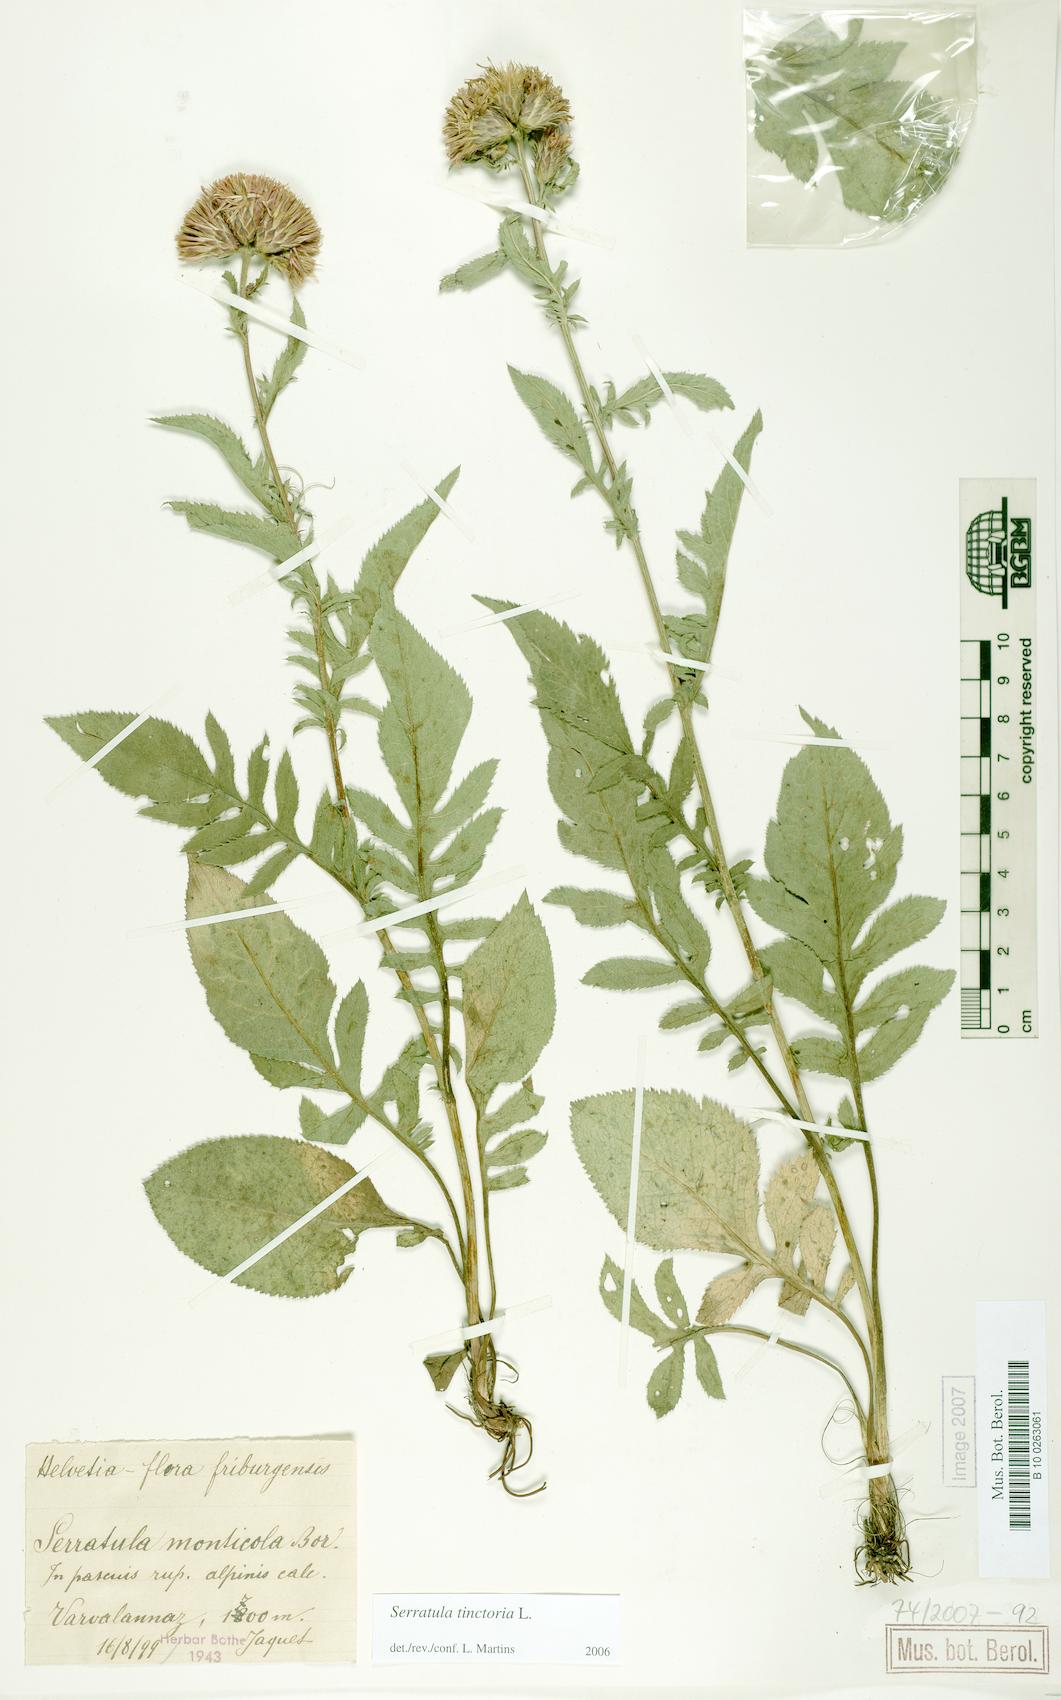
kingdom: Plantae
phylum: Tracheophyta
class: Magnoliopsida
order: Asterales
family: Asteraceae
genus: Serratula
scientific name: Serratula tinctoria
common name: Saw-wort
